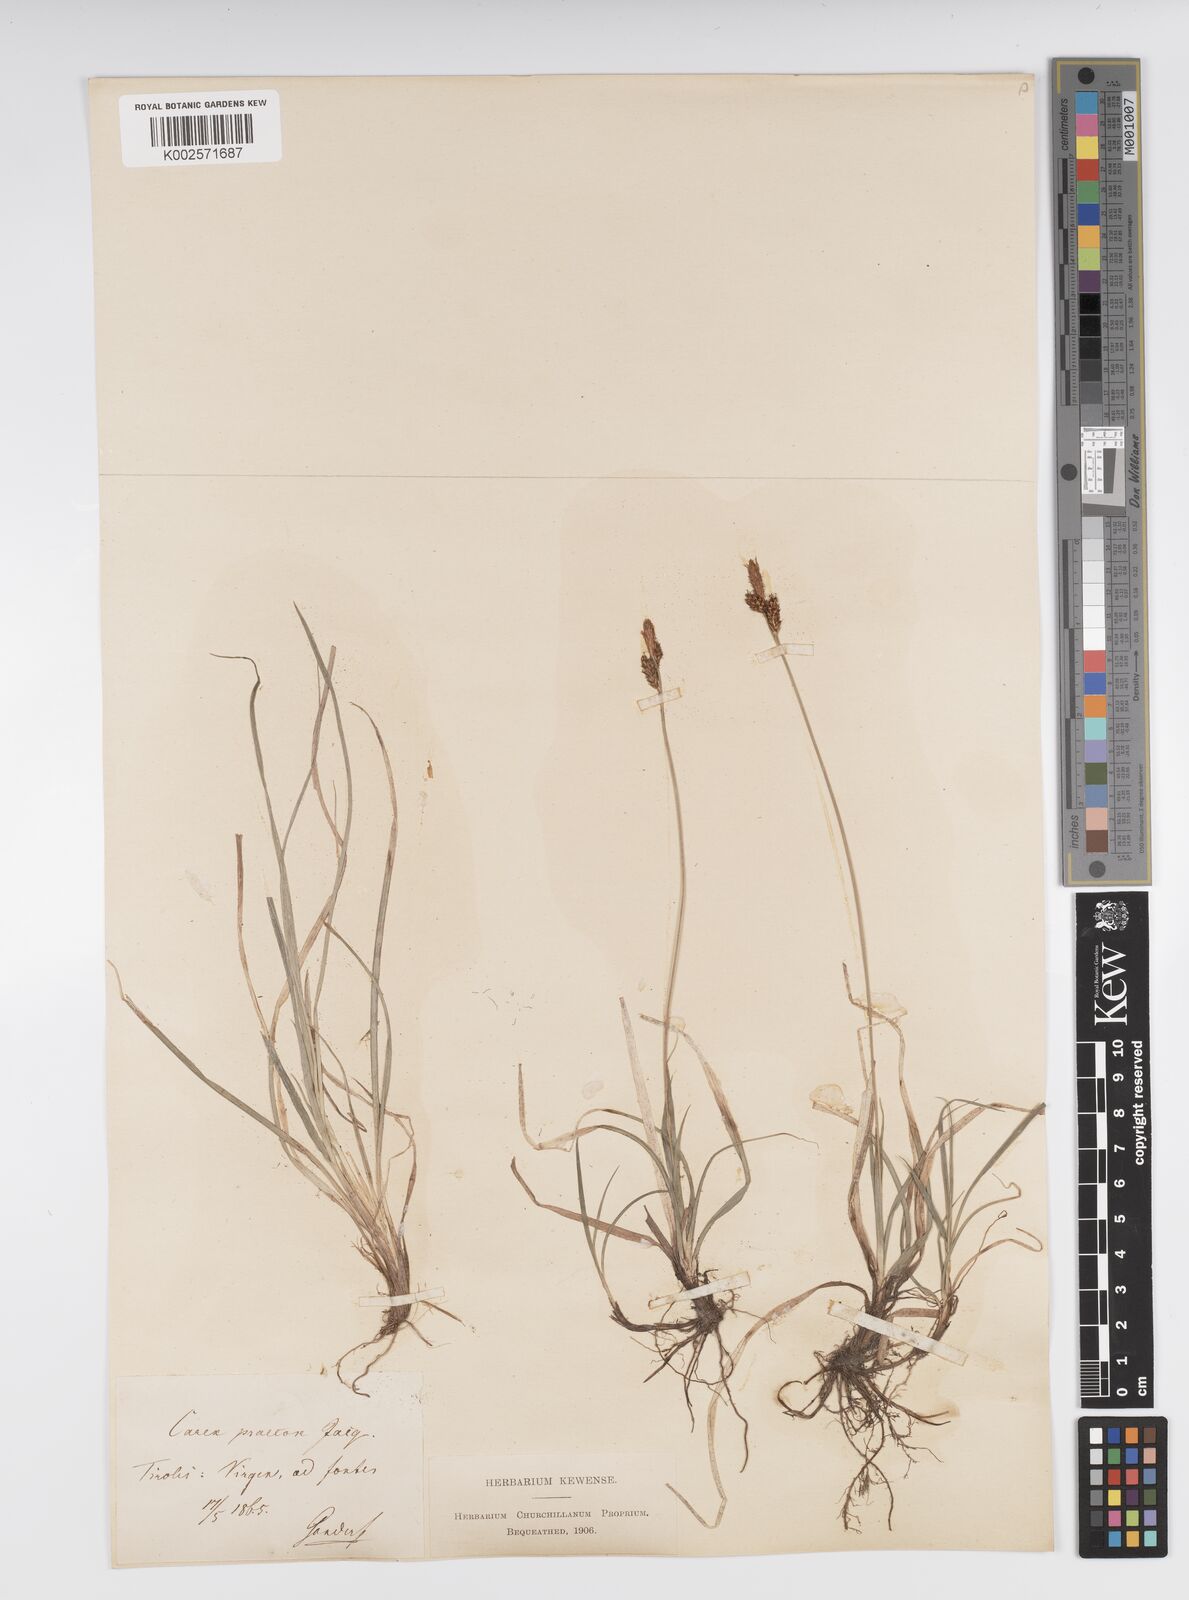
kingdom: Plantae
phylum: Tracheophyta
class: Liliopsida
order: Poales
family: Cyperaceae
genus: Carex
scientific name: Carex caryophyllea
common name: Spring sedge
